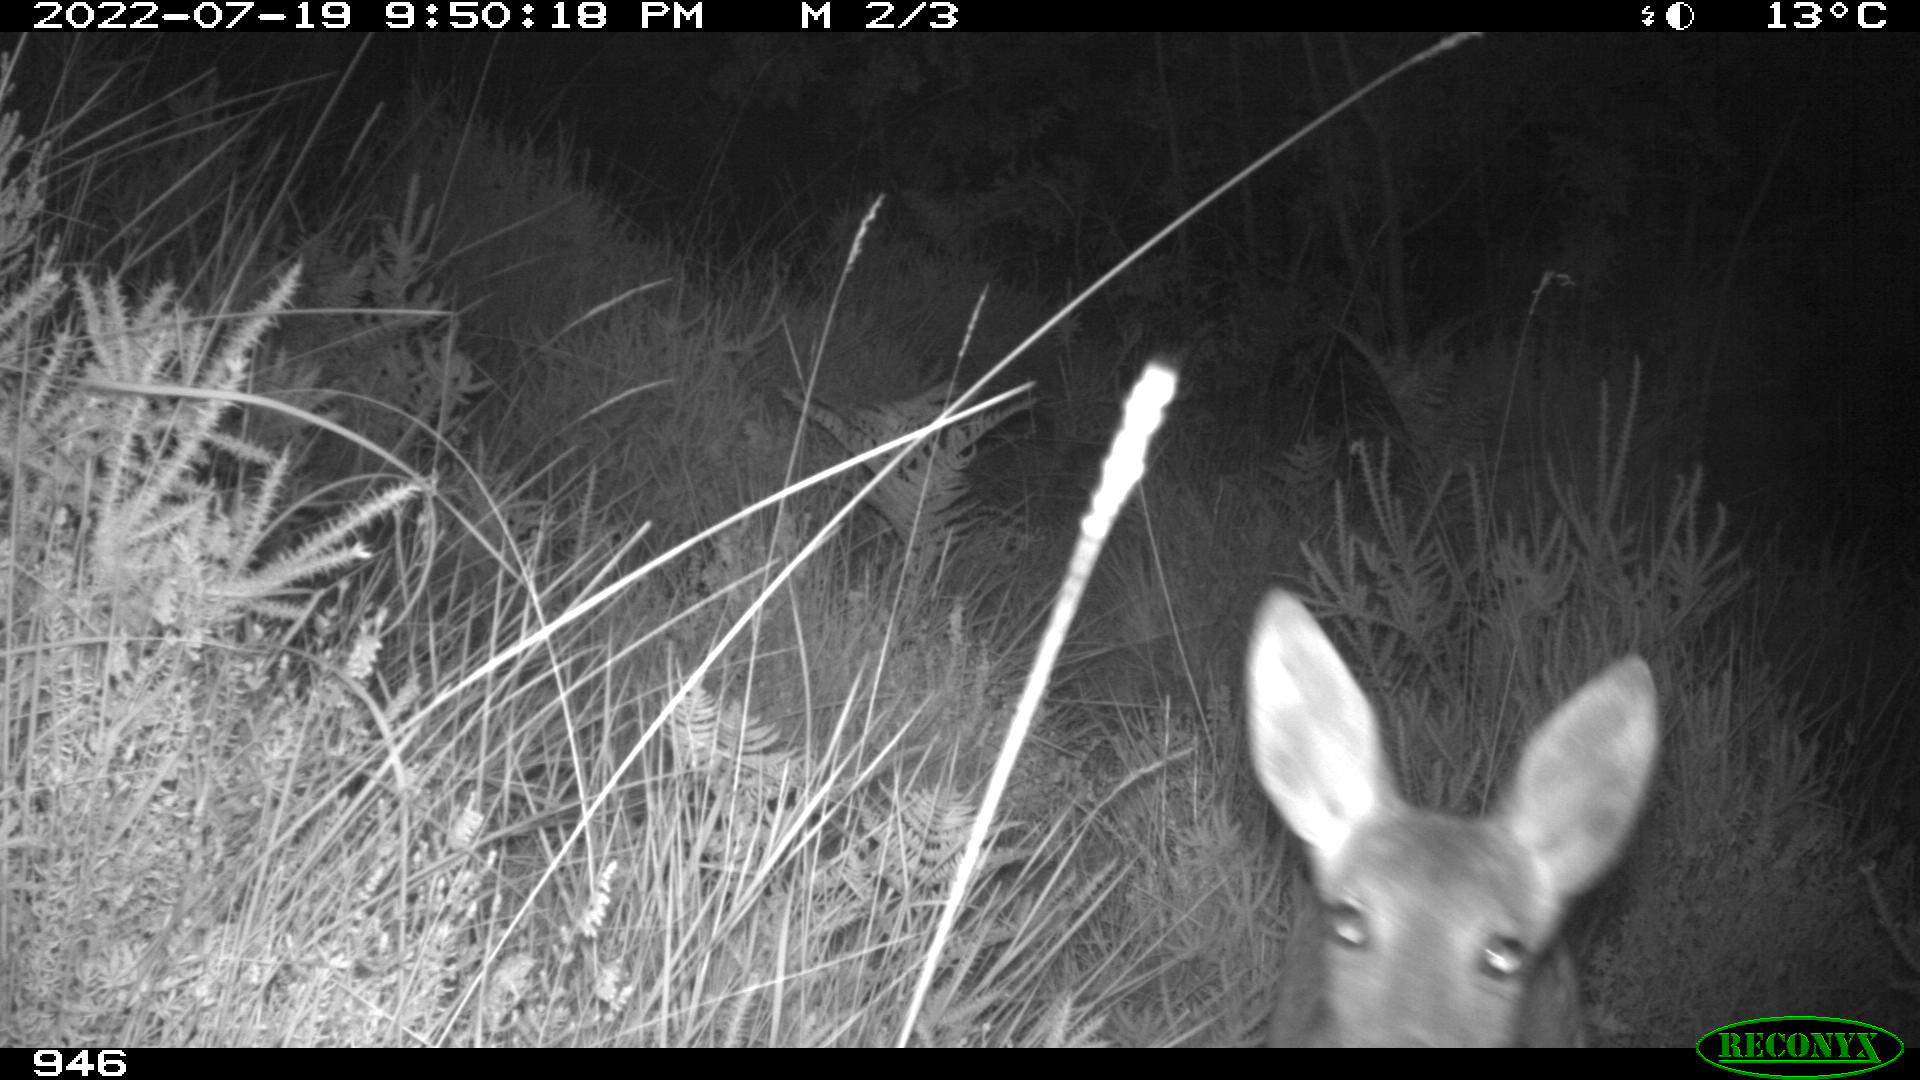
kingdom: Animalia
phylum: Chordata
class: Mammalia
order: Artiodactyla
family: Cervidae
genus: Capreolus
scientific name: Capreolus capreolus
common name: Western roe deer
